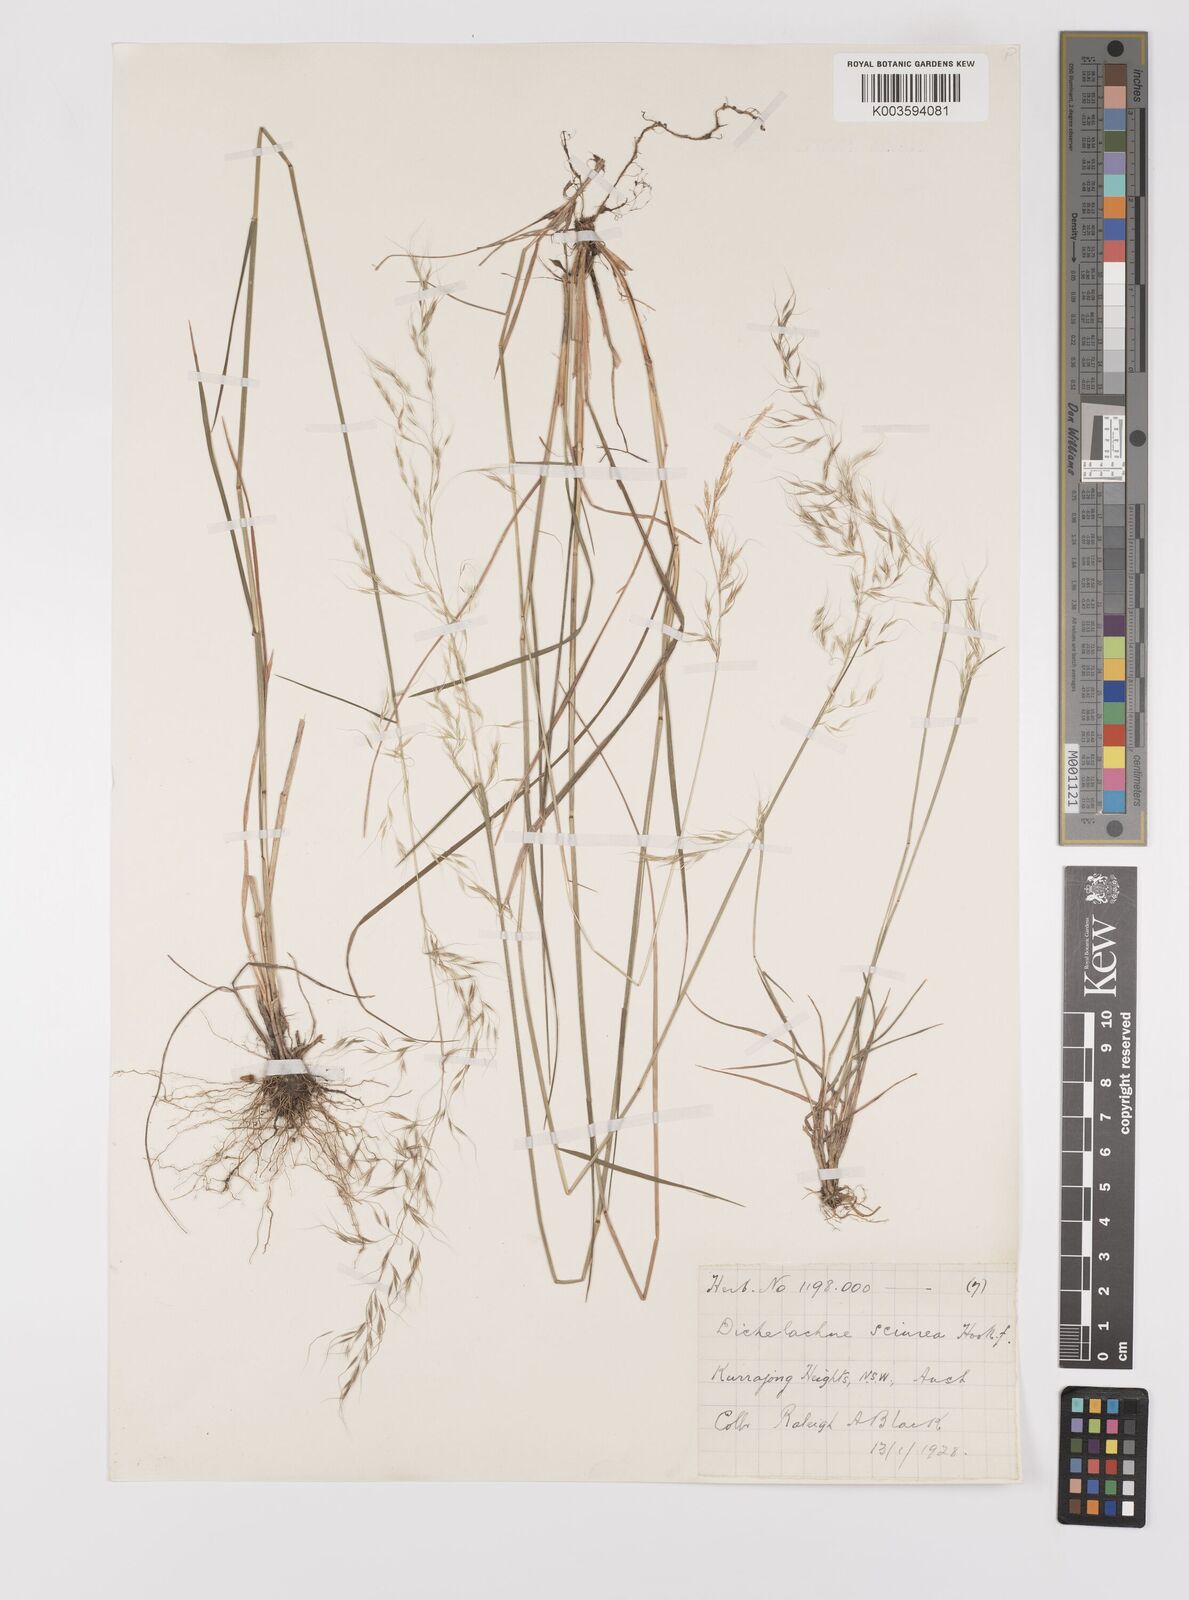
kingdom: Plantae
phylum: Tracheophyta
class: Liliopsida
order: Poales
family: Poaceae
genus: Dichelachne
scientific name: Dichelachne rara
